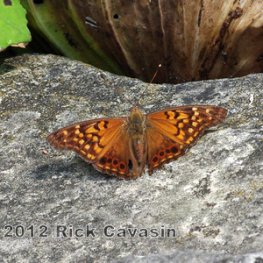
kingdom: Animalia
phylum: Arthropoda
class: Insecta
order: Lepidoptera
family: Nymphalidae
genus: Asterocampa
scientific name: Asterocampa clyton
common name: Tawny Emperor
